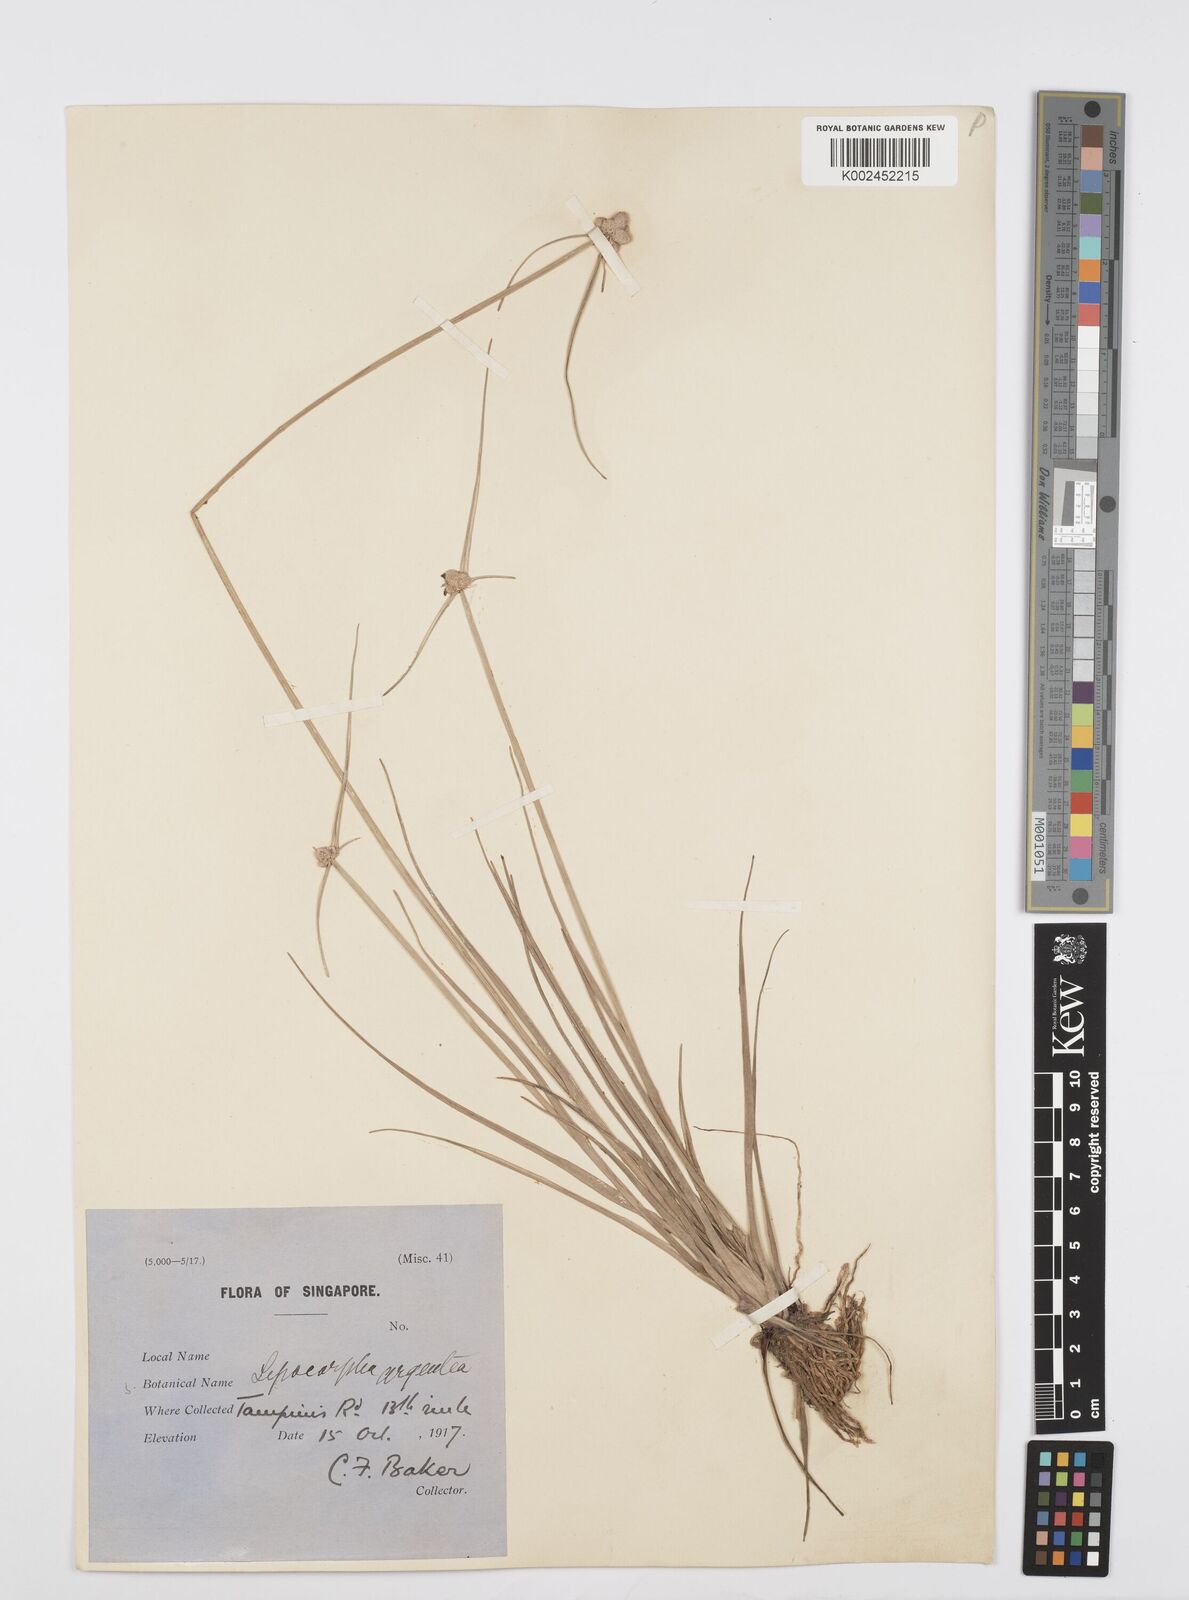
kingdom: Plantae
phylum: Tracheophyta
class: Liliopsida
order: Poales
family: Cyperaceae
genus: Cyperus
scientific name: Cyperus
